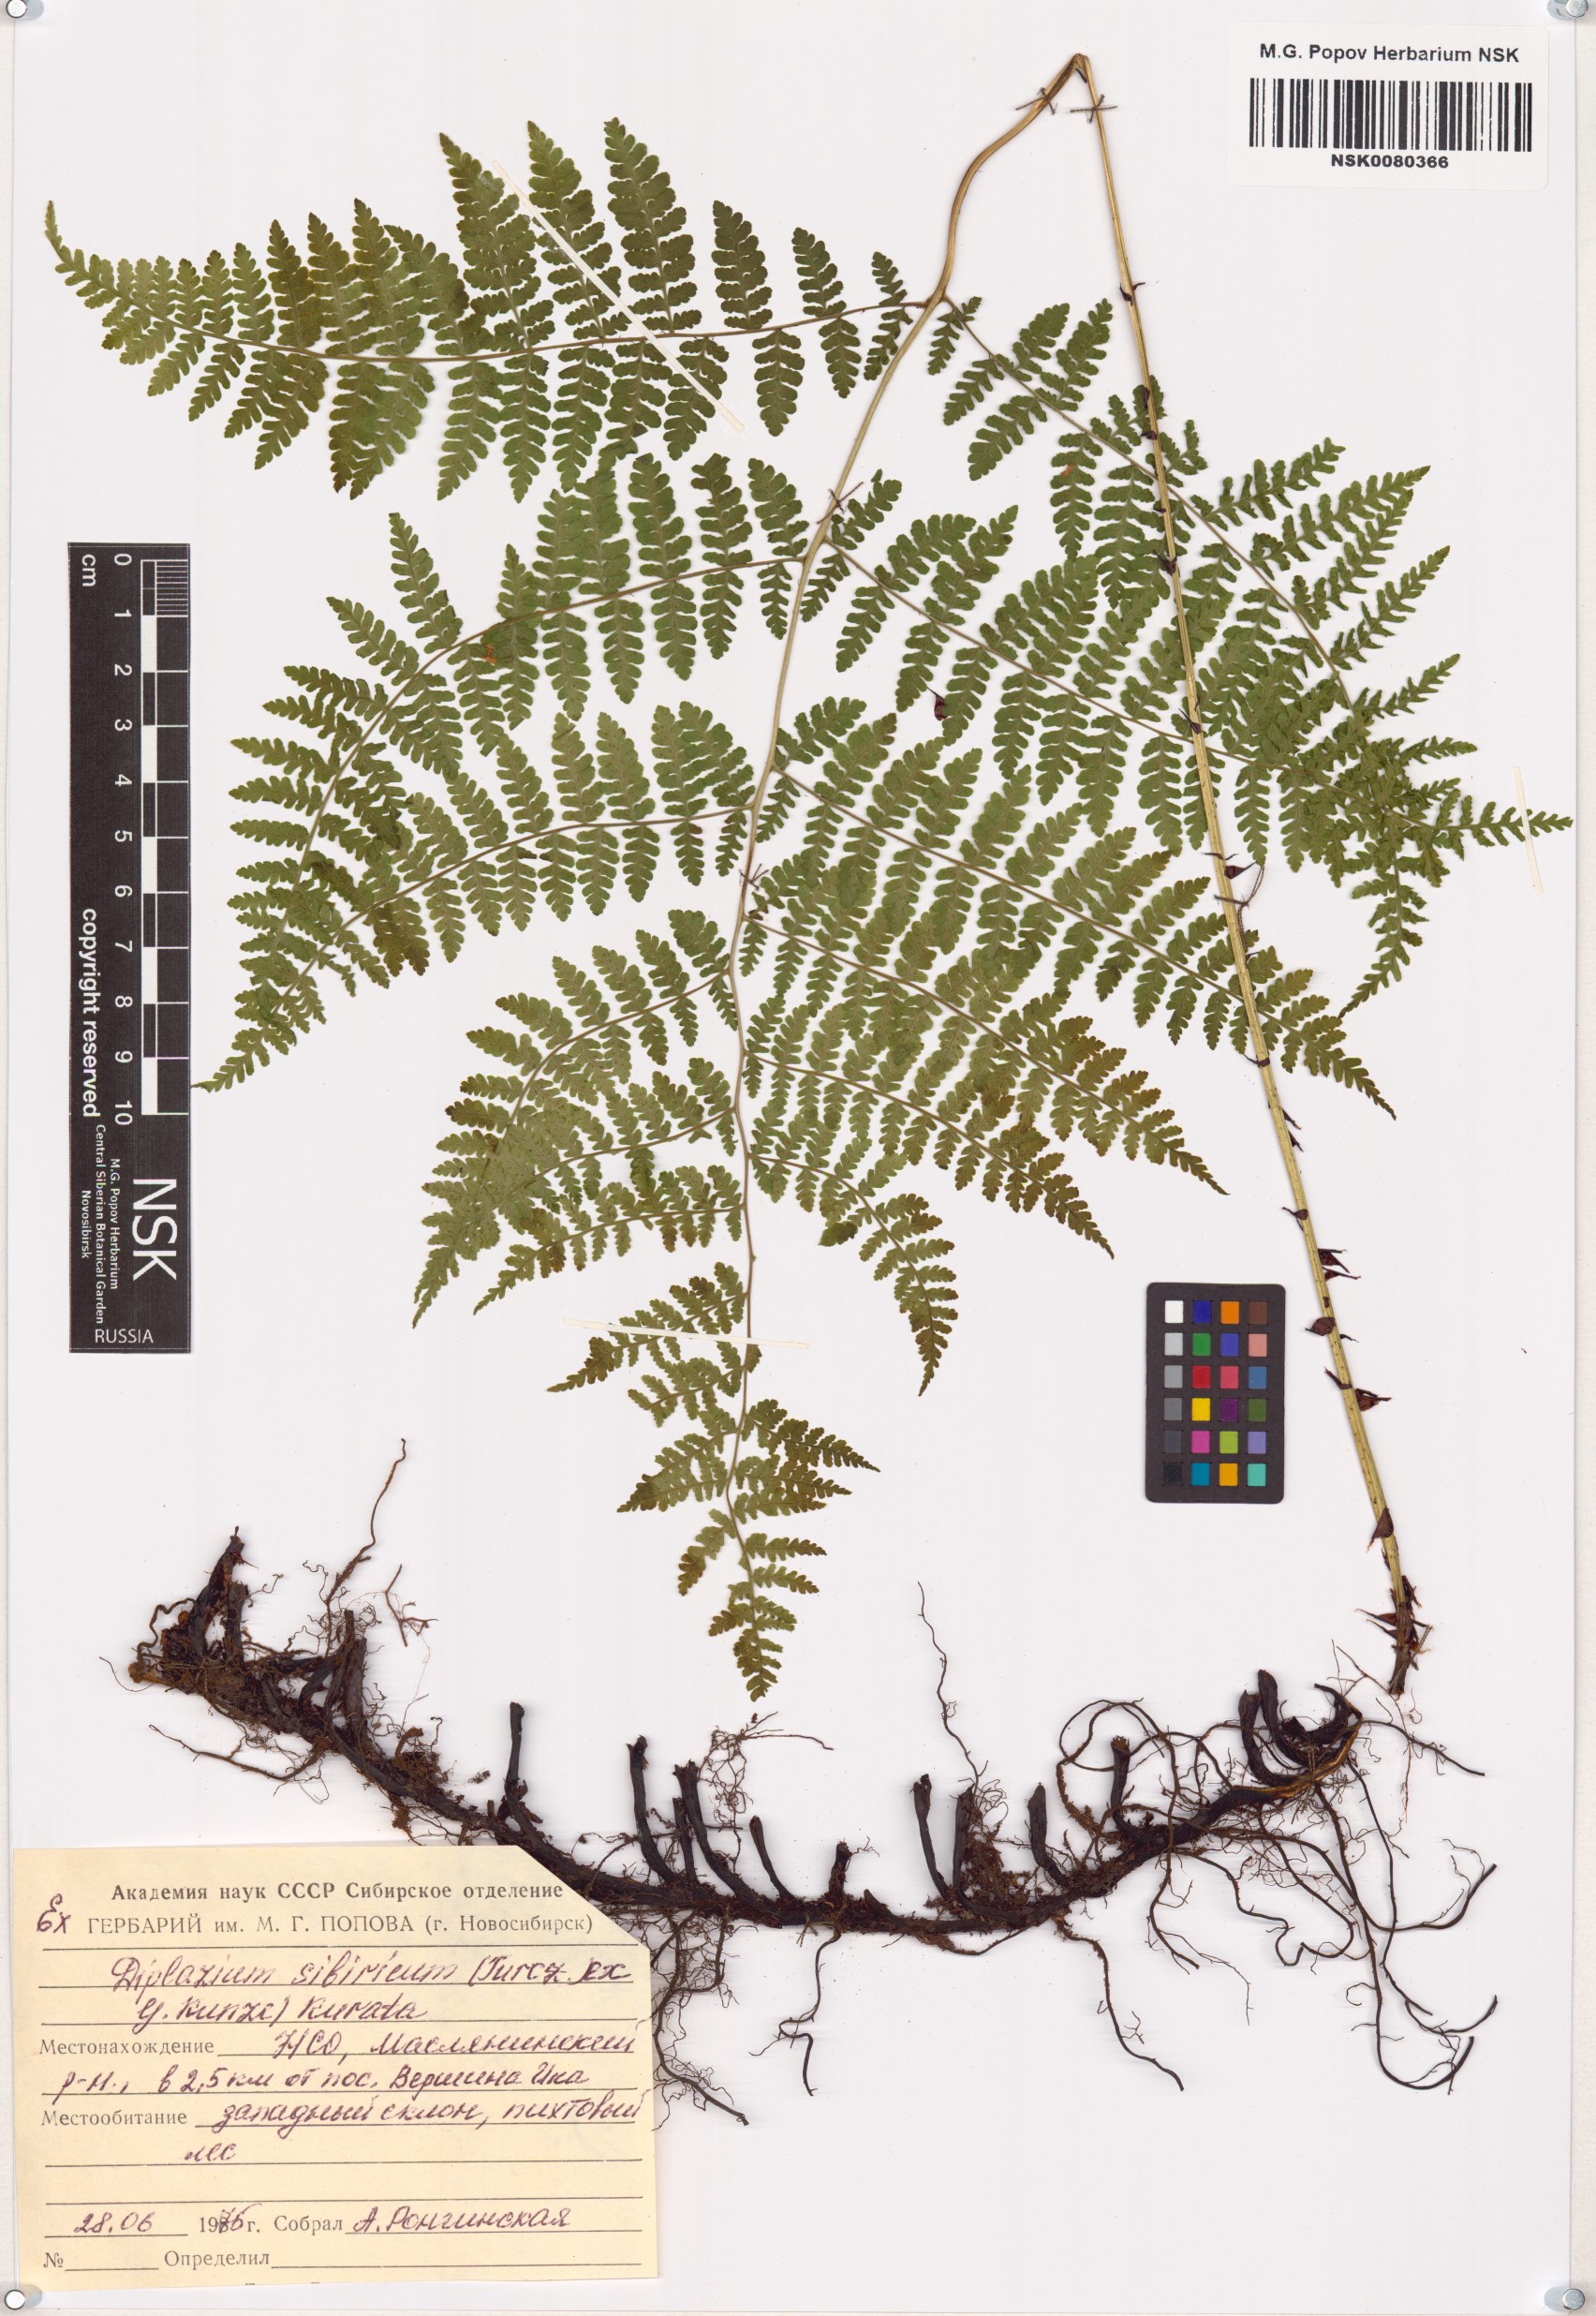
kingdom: Plantae
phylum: Tracheophyta
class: Polypodiopsida
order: Polypodiales
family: Athyriaceae
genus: Diplazium
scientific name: Diplazium sibiricum
